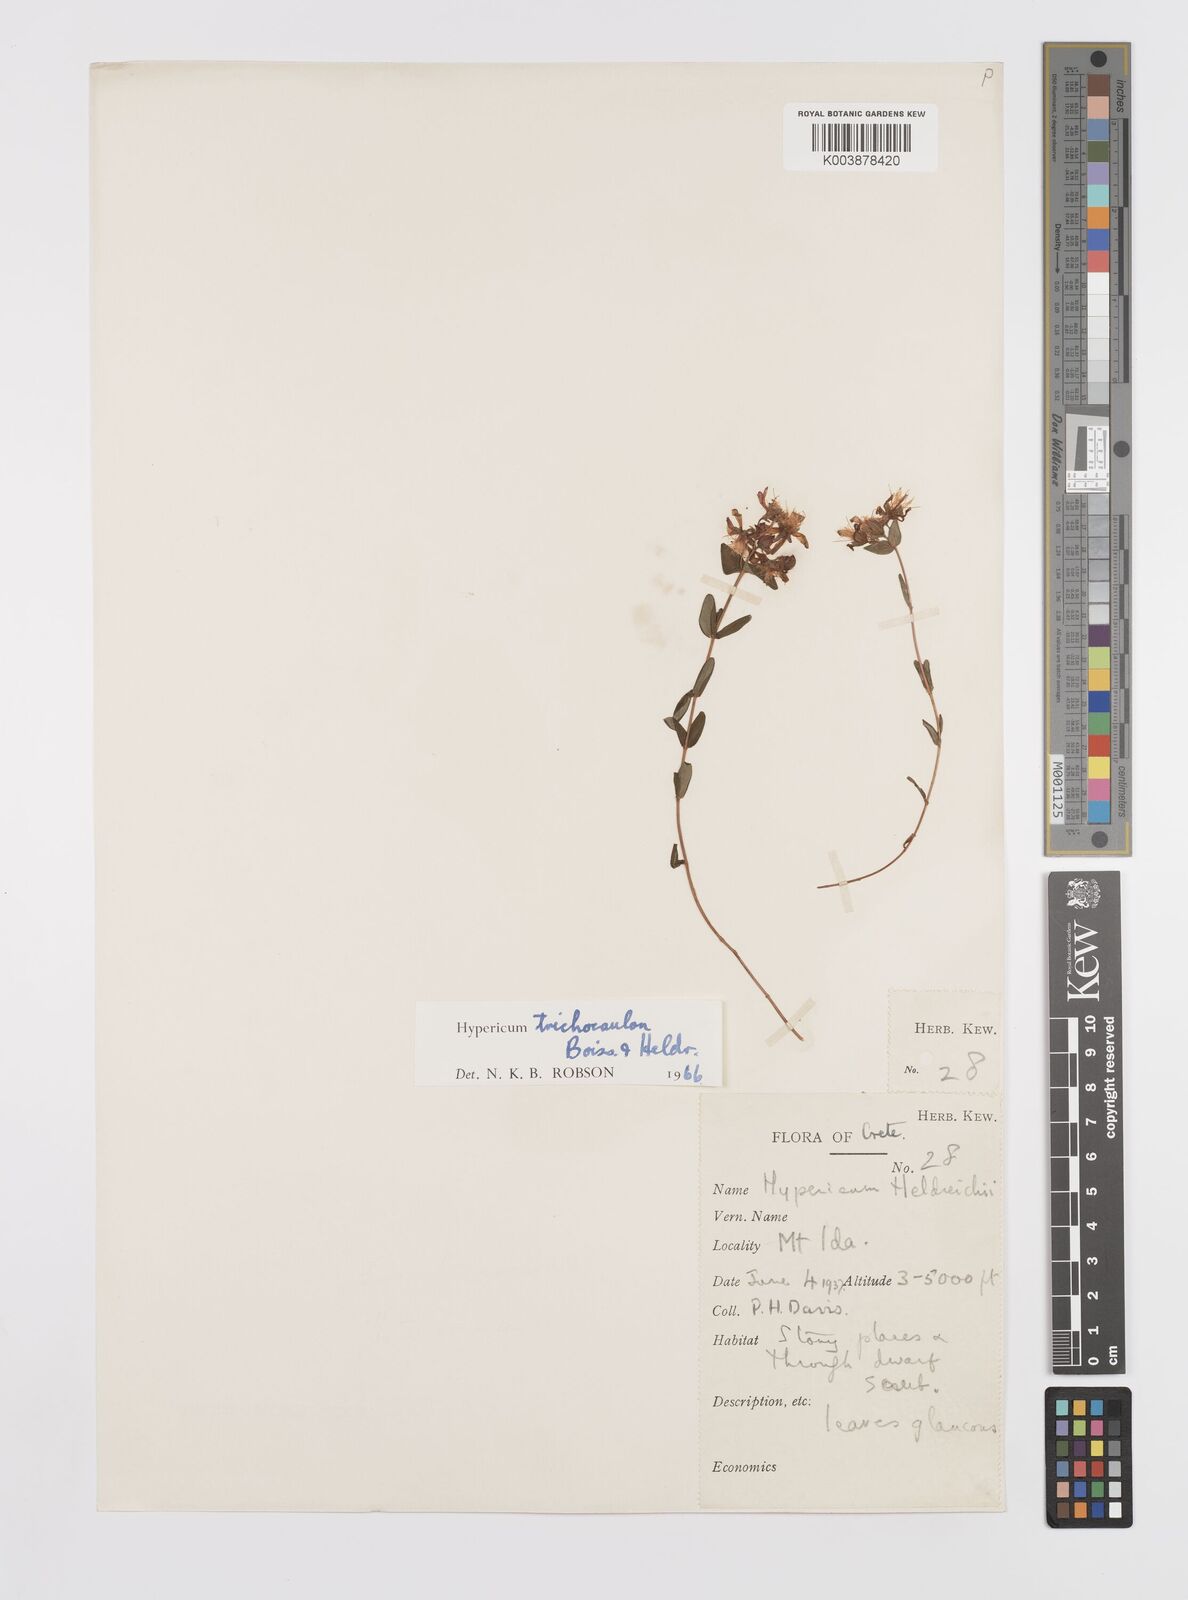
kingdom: Plantae
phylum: Tracheophyta
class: Magnoliopsida
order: Malpighiales
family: Hypericaceae
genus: Hypericum
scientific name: Hypericum trichocaulon
